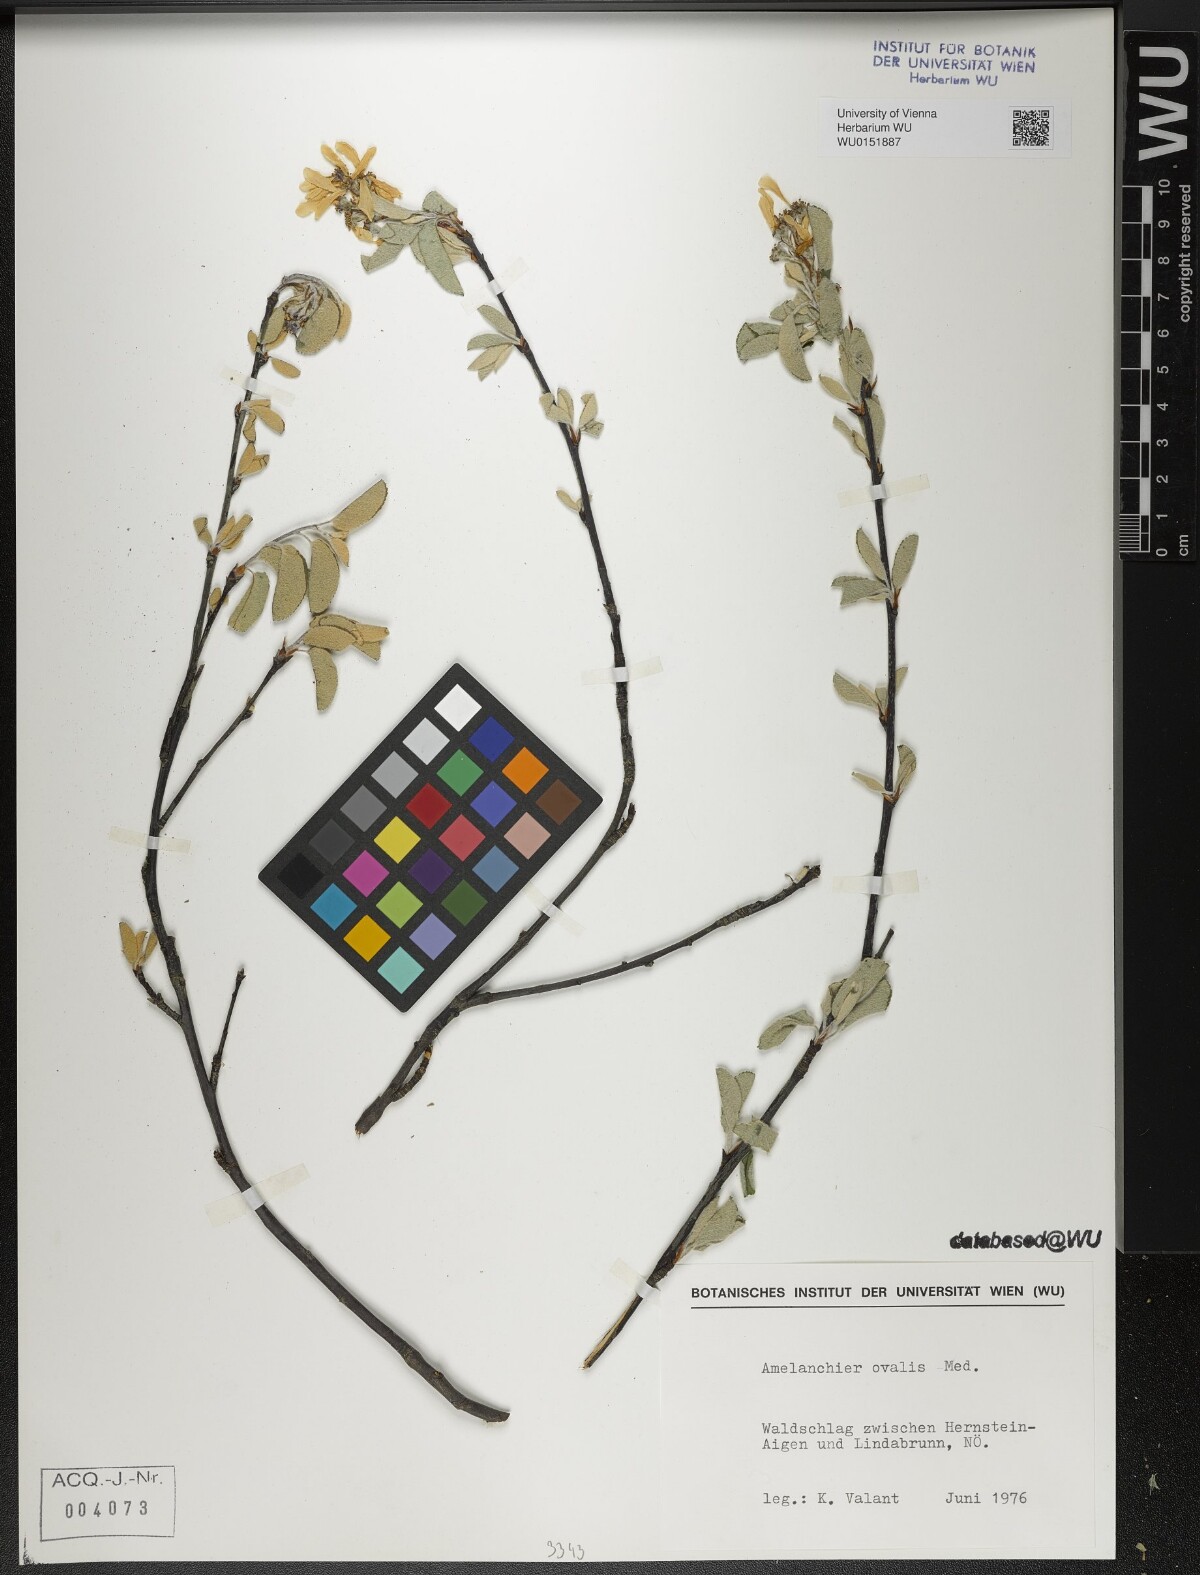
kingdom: Plantae
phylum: Tracheophyta
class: Magnoliopsida
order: Rosales
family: Rosaceae
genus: Amelanchier
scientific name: Amelanchier ovalis
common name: Serviceberry
